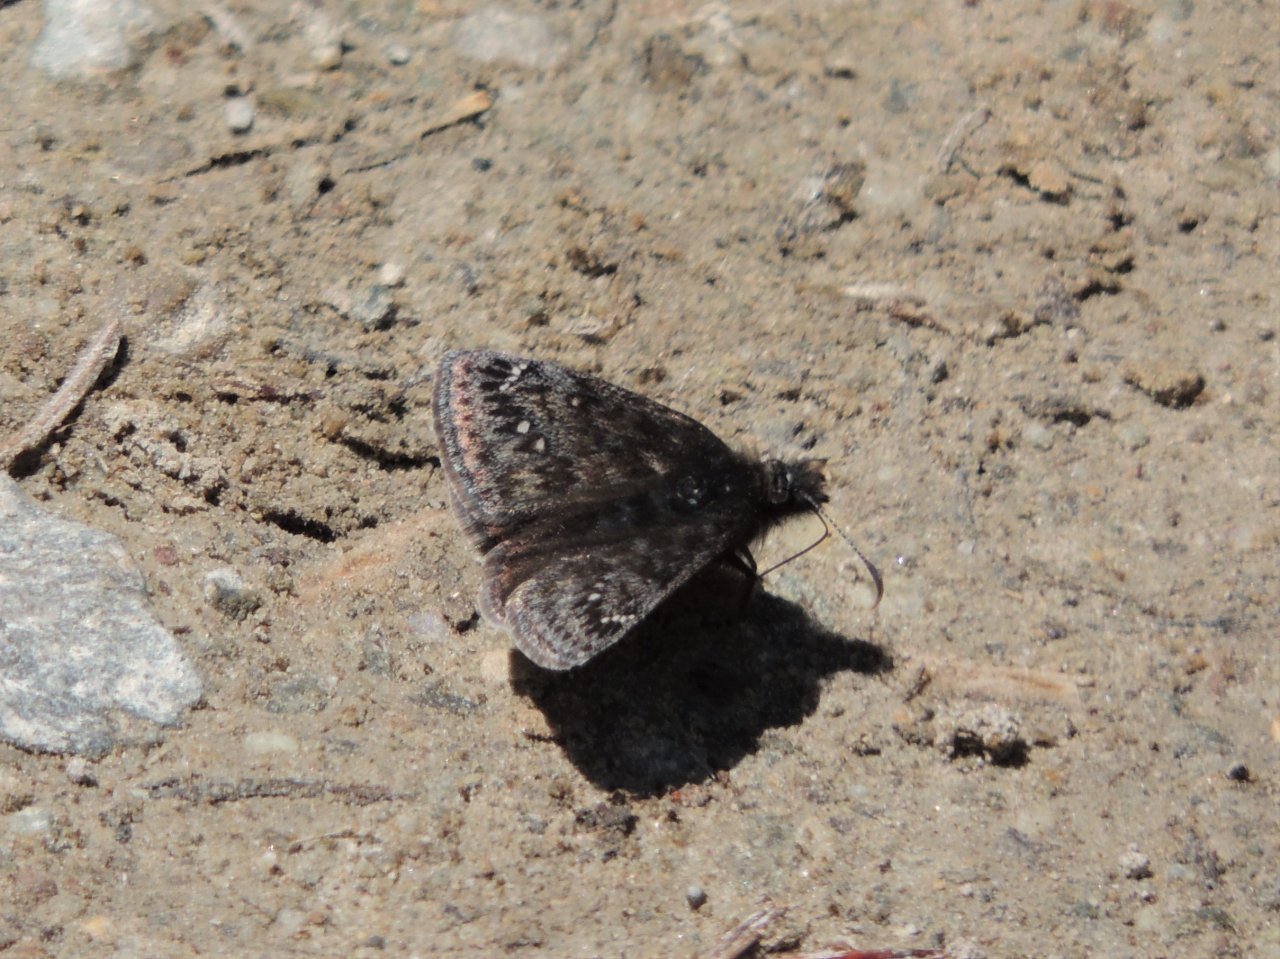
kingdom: Animalia
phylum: Arthropoda
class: Insecta
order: Lepidoptera
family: Hesperiidae
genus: Gesta
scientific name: Gesta
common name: Persius Duskywing
